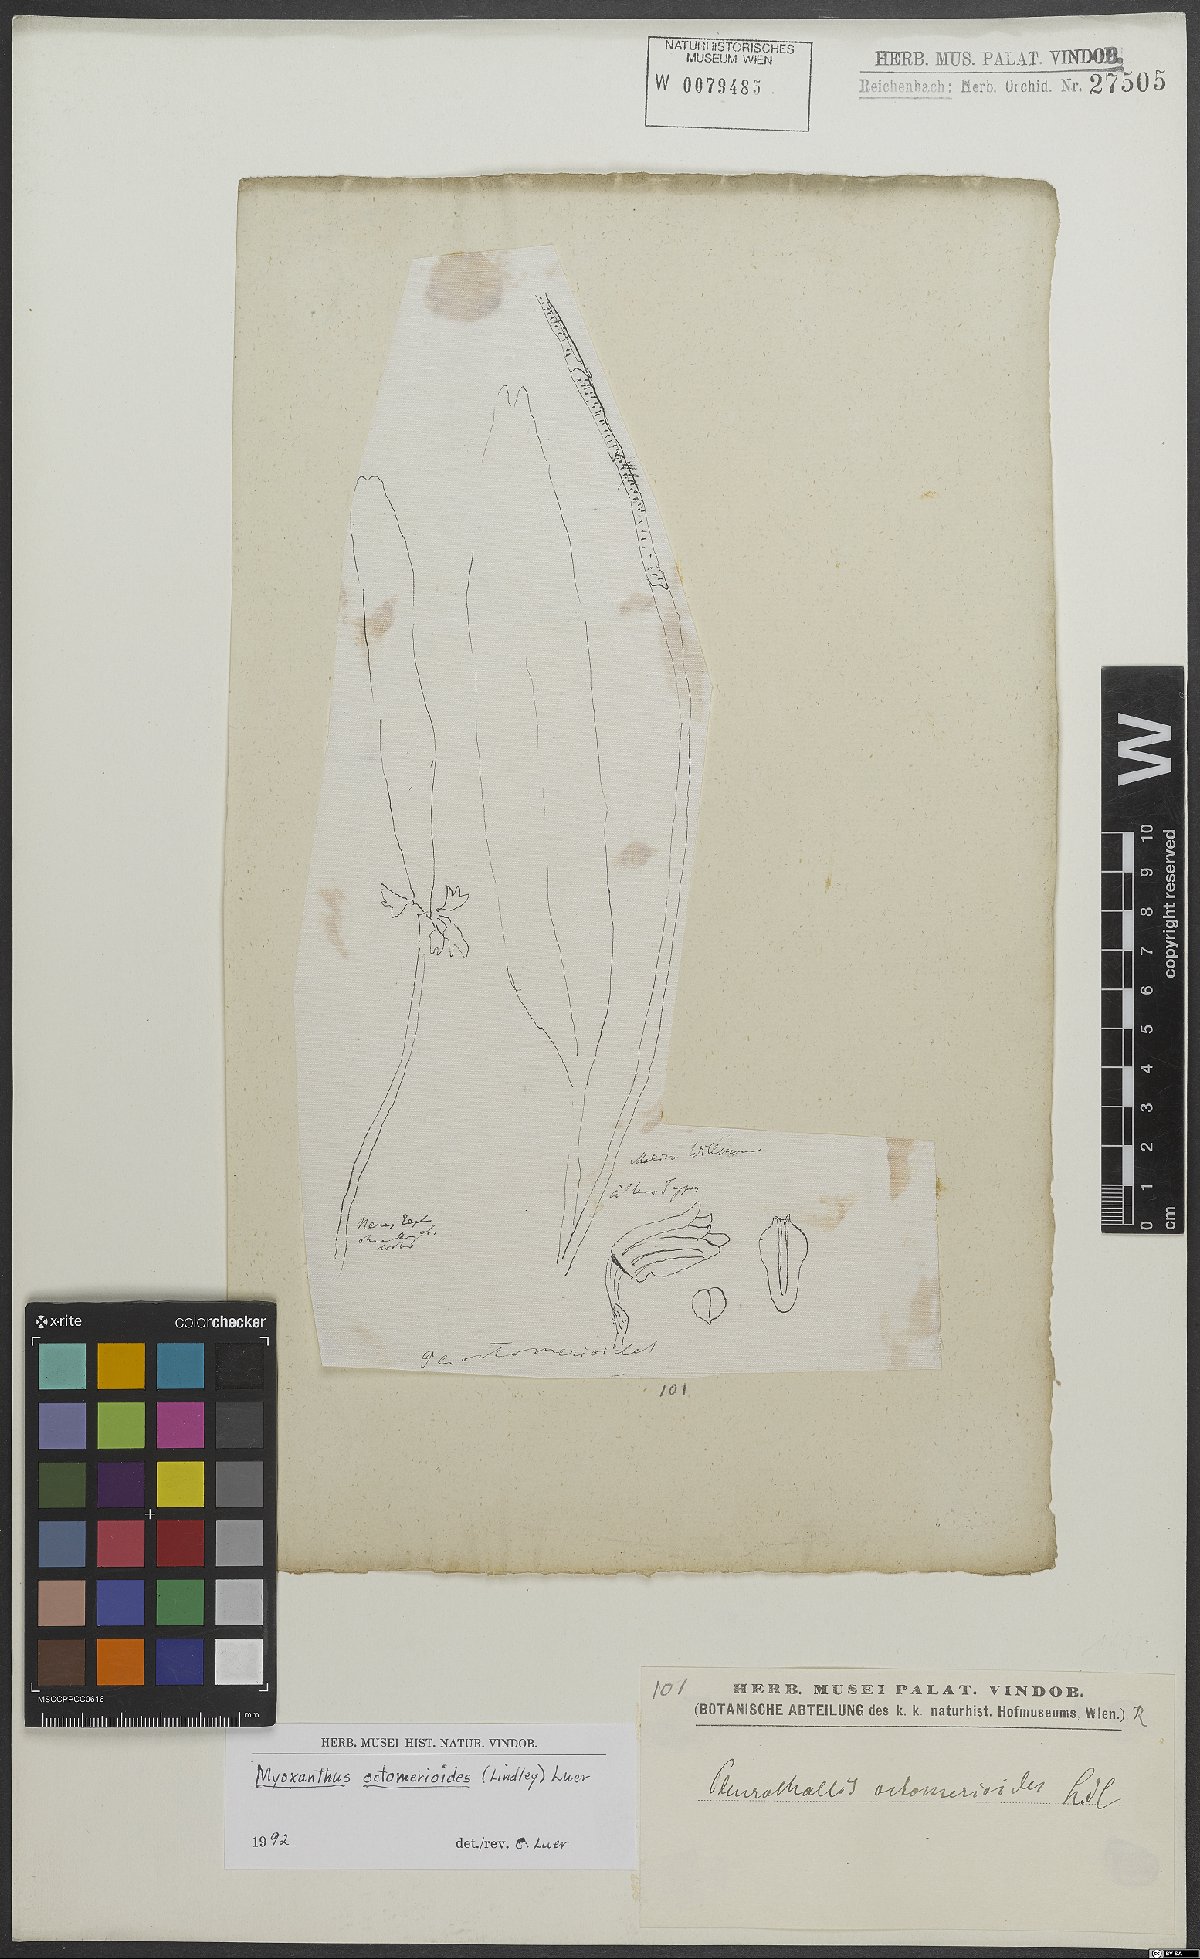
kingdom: Plantae
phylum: Tracheophyta
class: Liliopsida
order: Asparagales
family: Orchidaceae
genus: Myoxanthus
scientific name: Myoxanthus octomerioides
